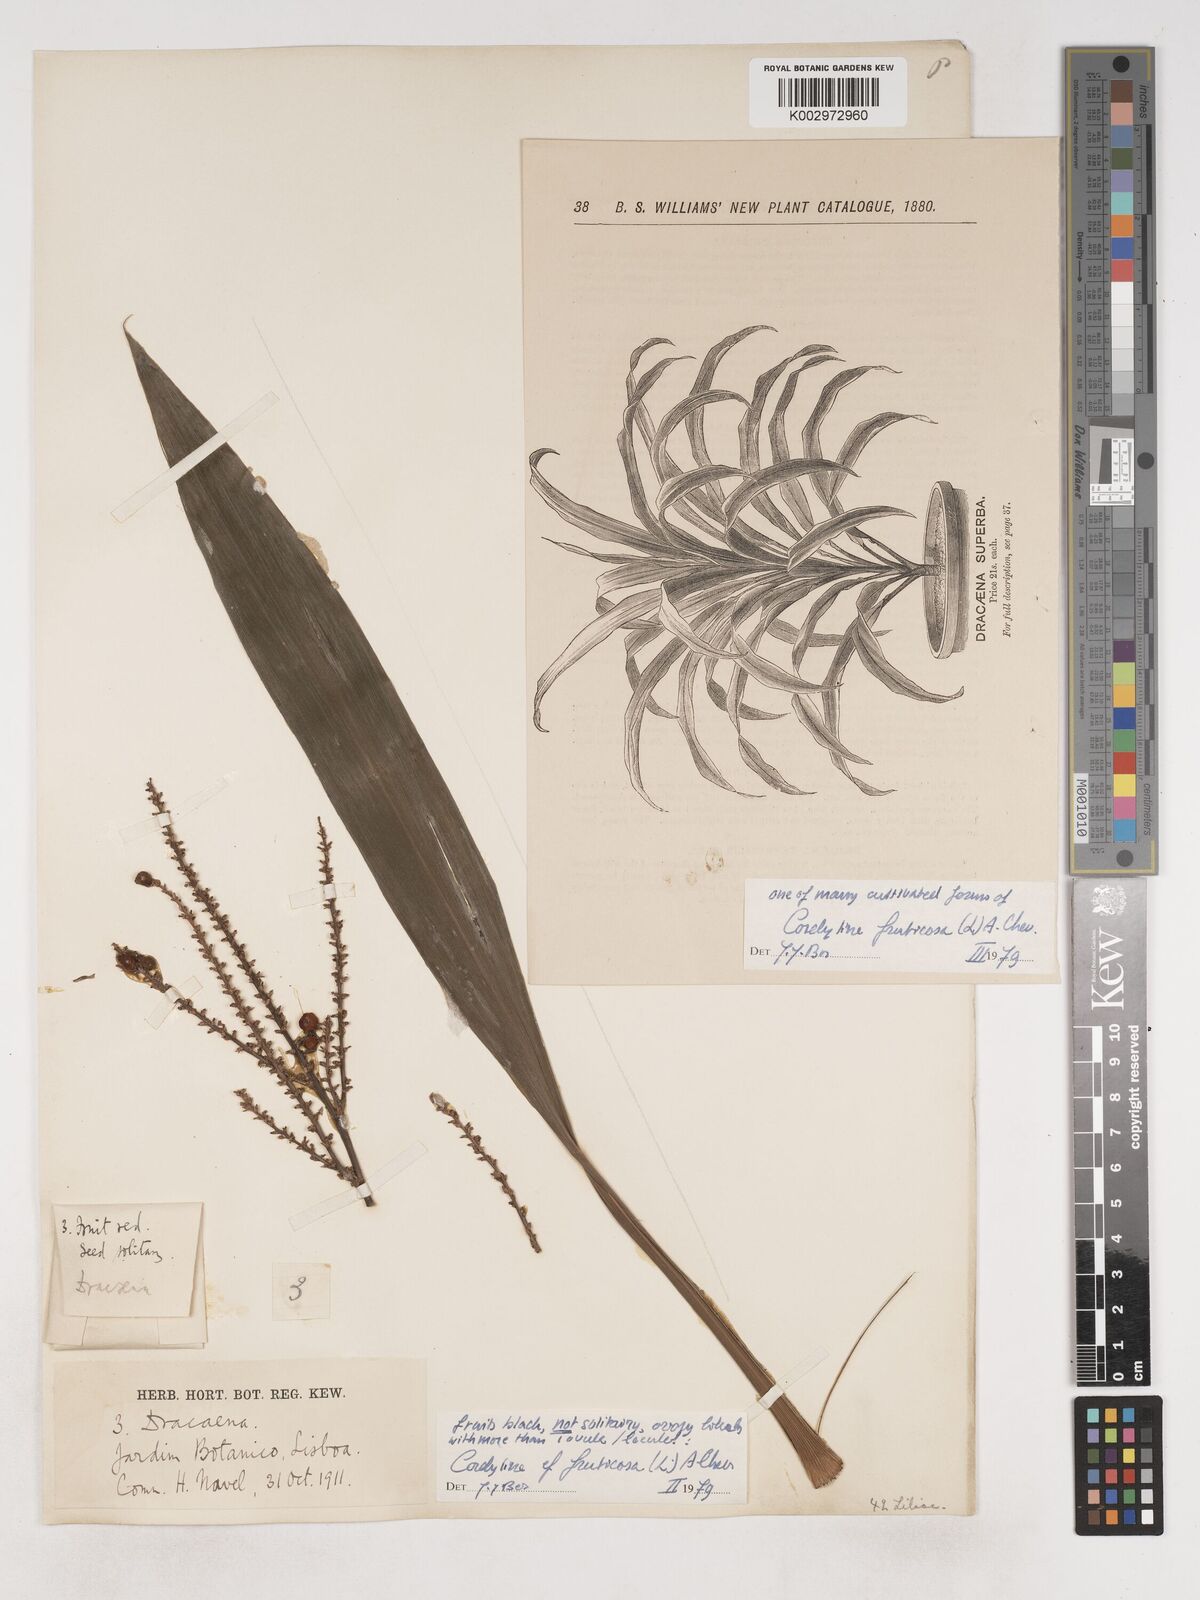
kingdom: Plantae
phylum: Tracheophyta
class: Liliopsida
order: Asparagales
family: Asparagaceae
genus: Cordyline
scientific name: Cordyline fruticosa
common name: Good-luck-plant
